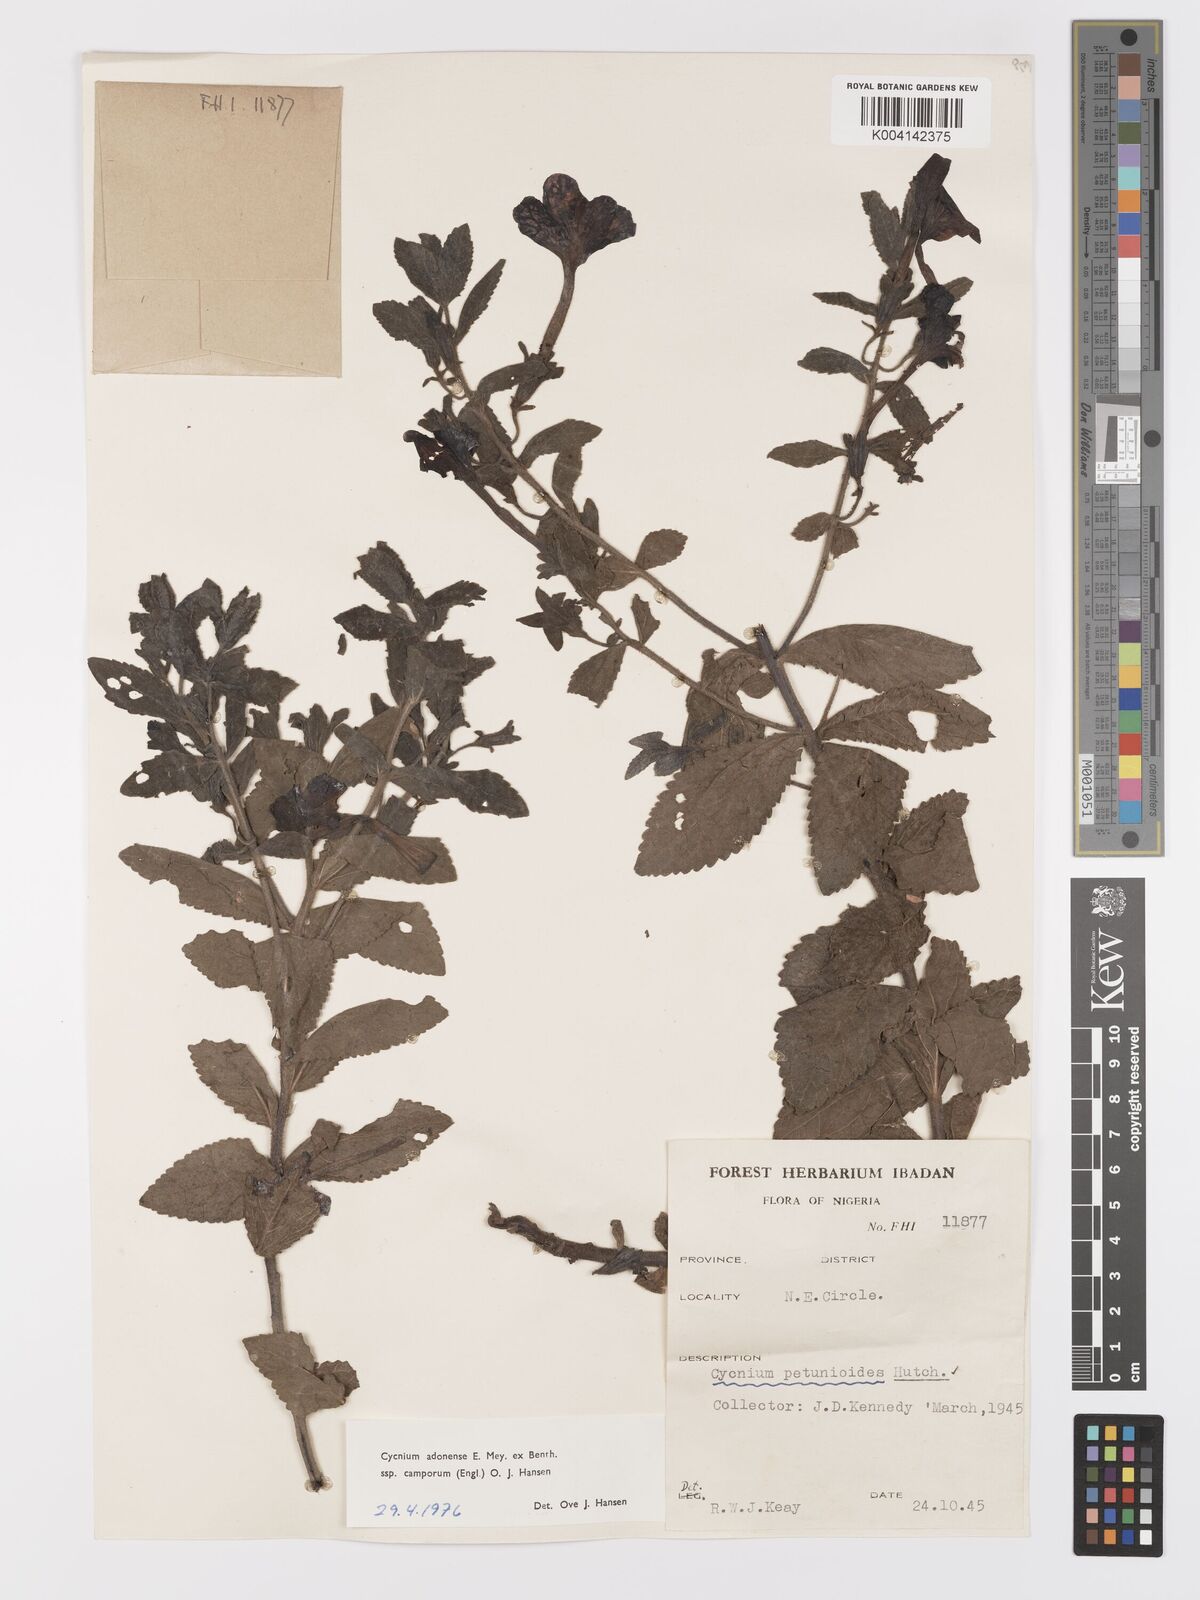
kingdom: Plantae
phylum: Tracheophyta
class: Magnoliopsida
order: Lamiales
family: Orobanchaceae
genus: Cycnium
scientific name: Cycnium adoense
